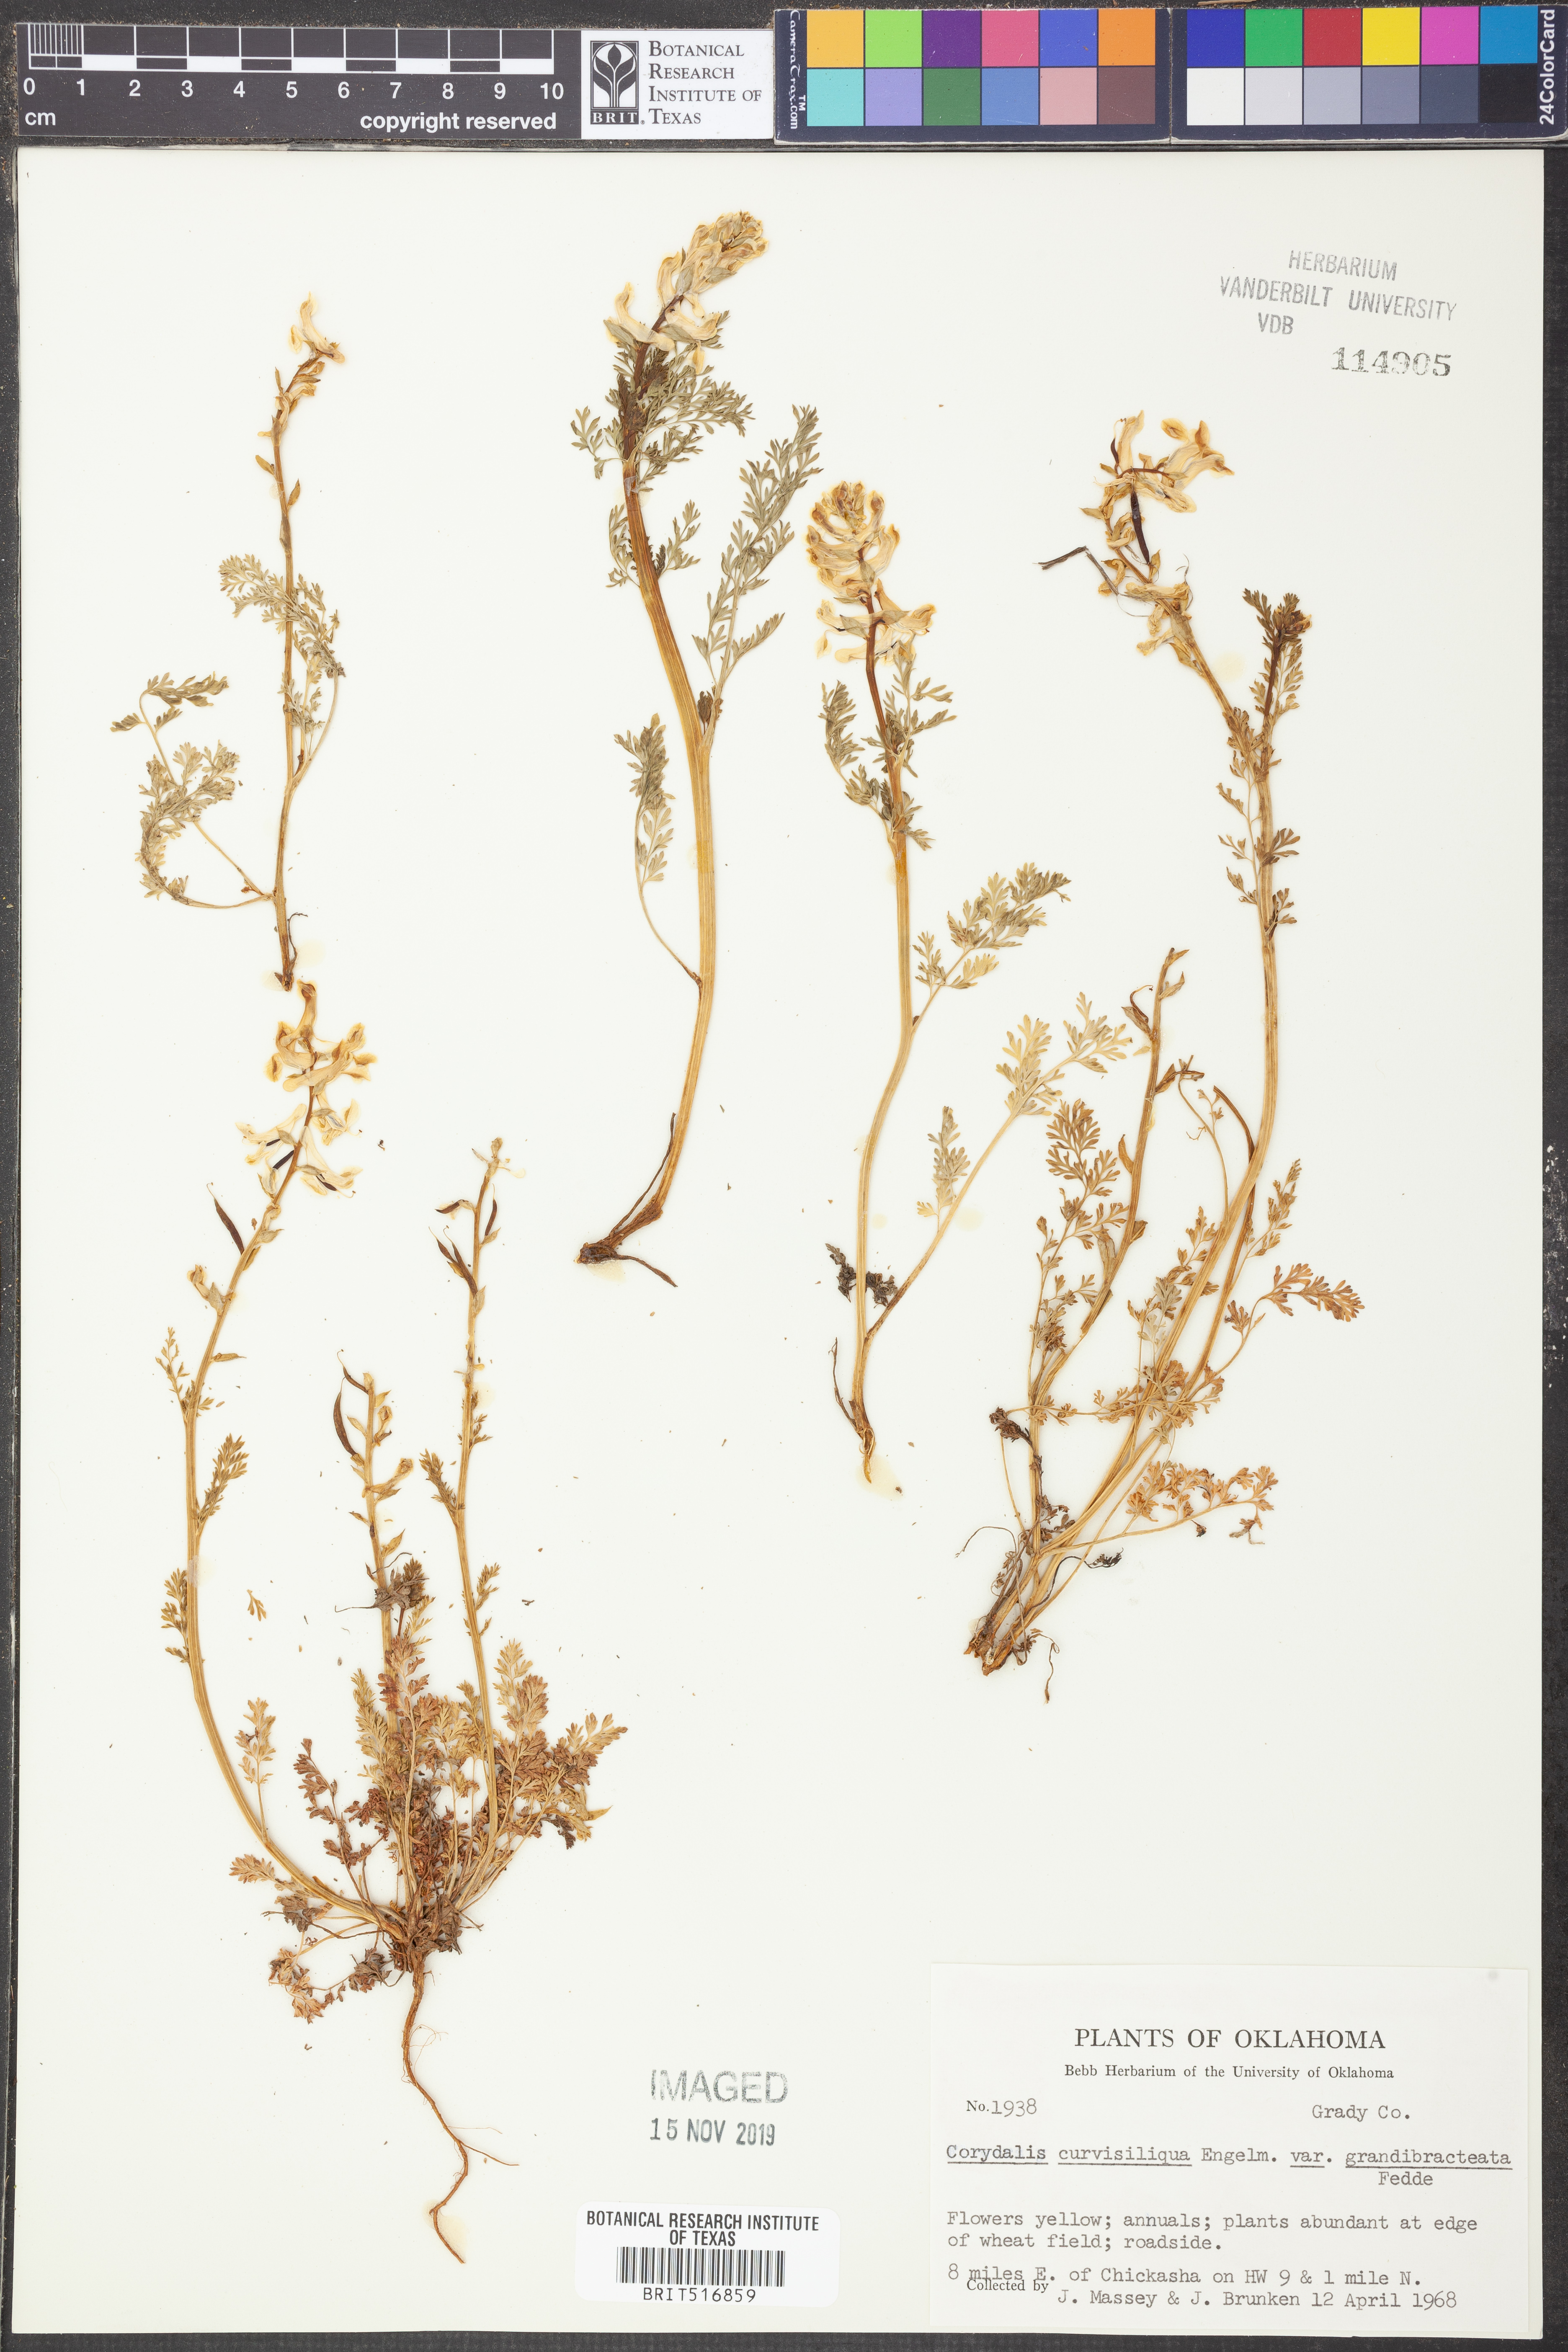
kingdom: Plantae
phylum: Tracheophyta
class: Magnoliopsida
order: Ranunculales
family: Papaveraceae
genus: Corydalis
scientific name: Corydalis curvisiliqua
